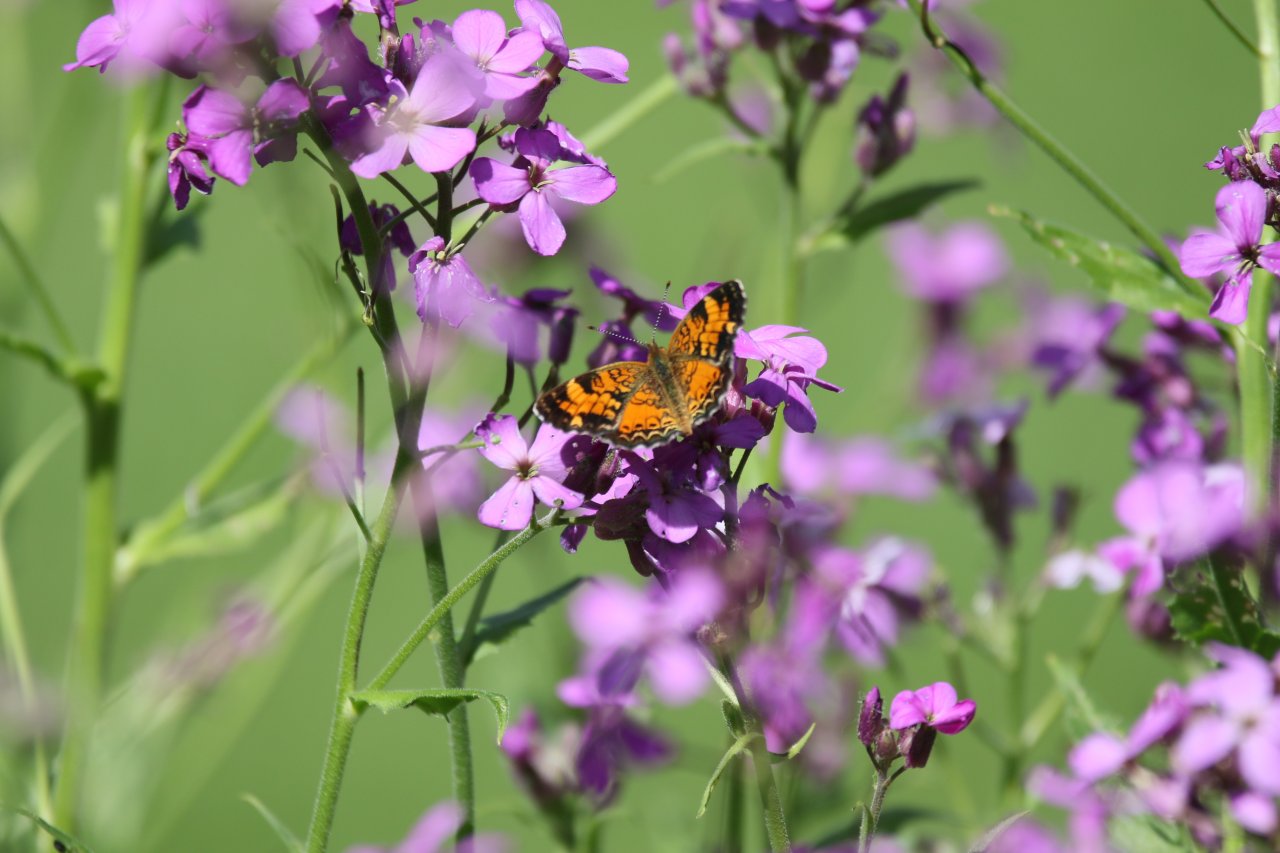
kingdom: Animalia
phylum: Arthropoda
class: Insecta
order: Lepidoptera
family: Nymphalidae
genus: Phyciodes
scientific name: Phyciodes
